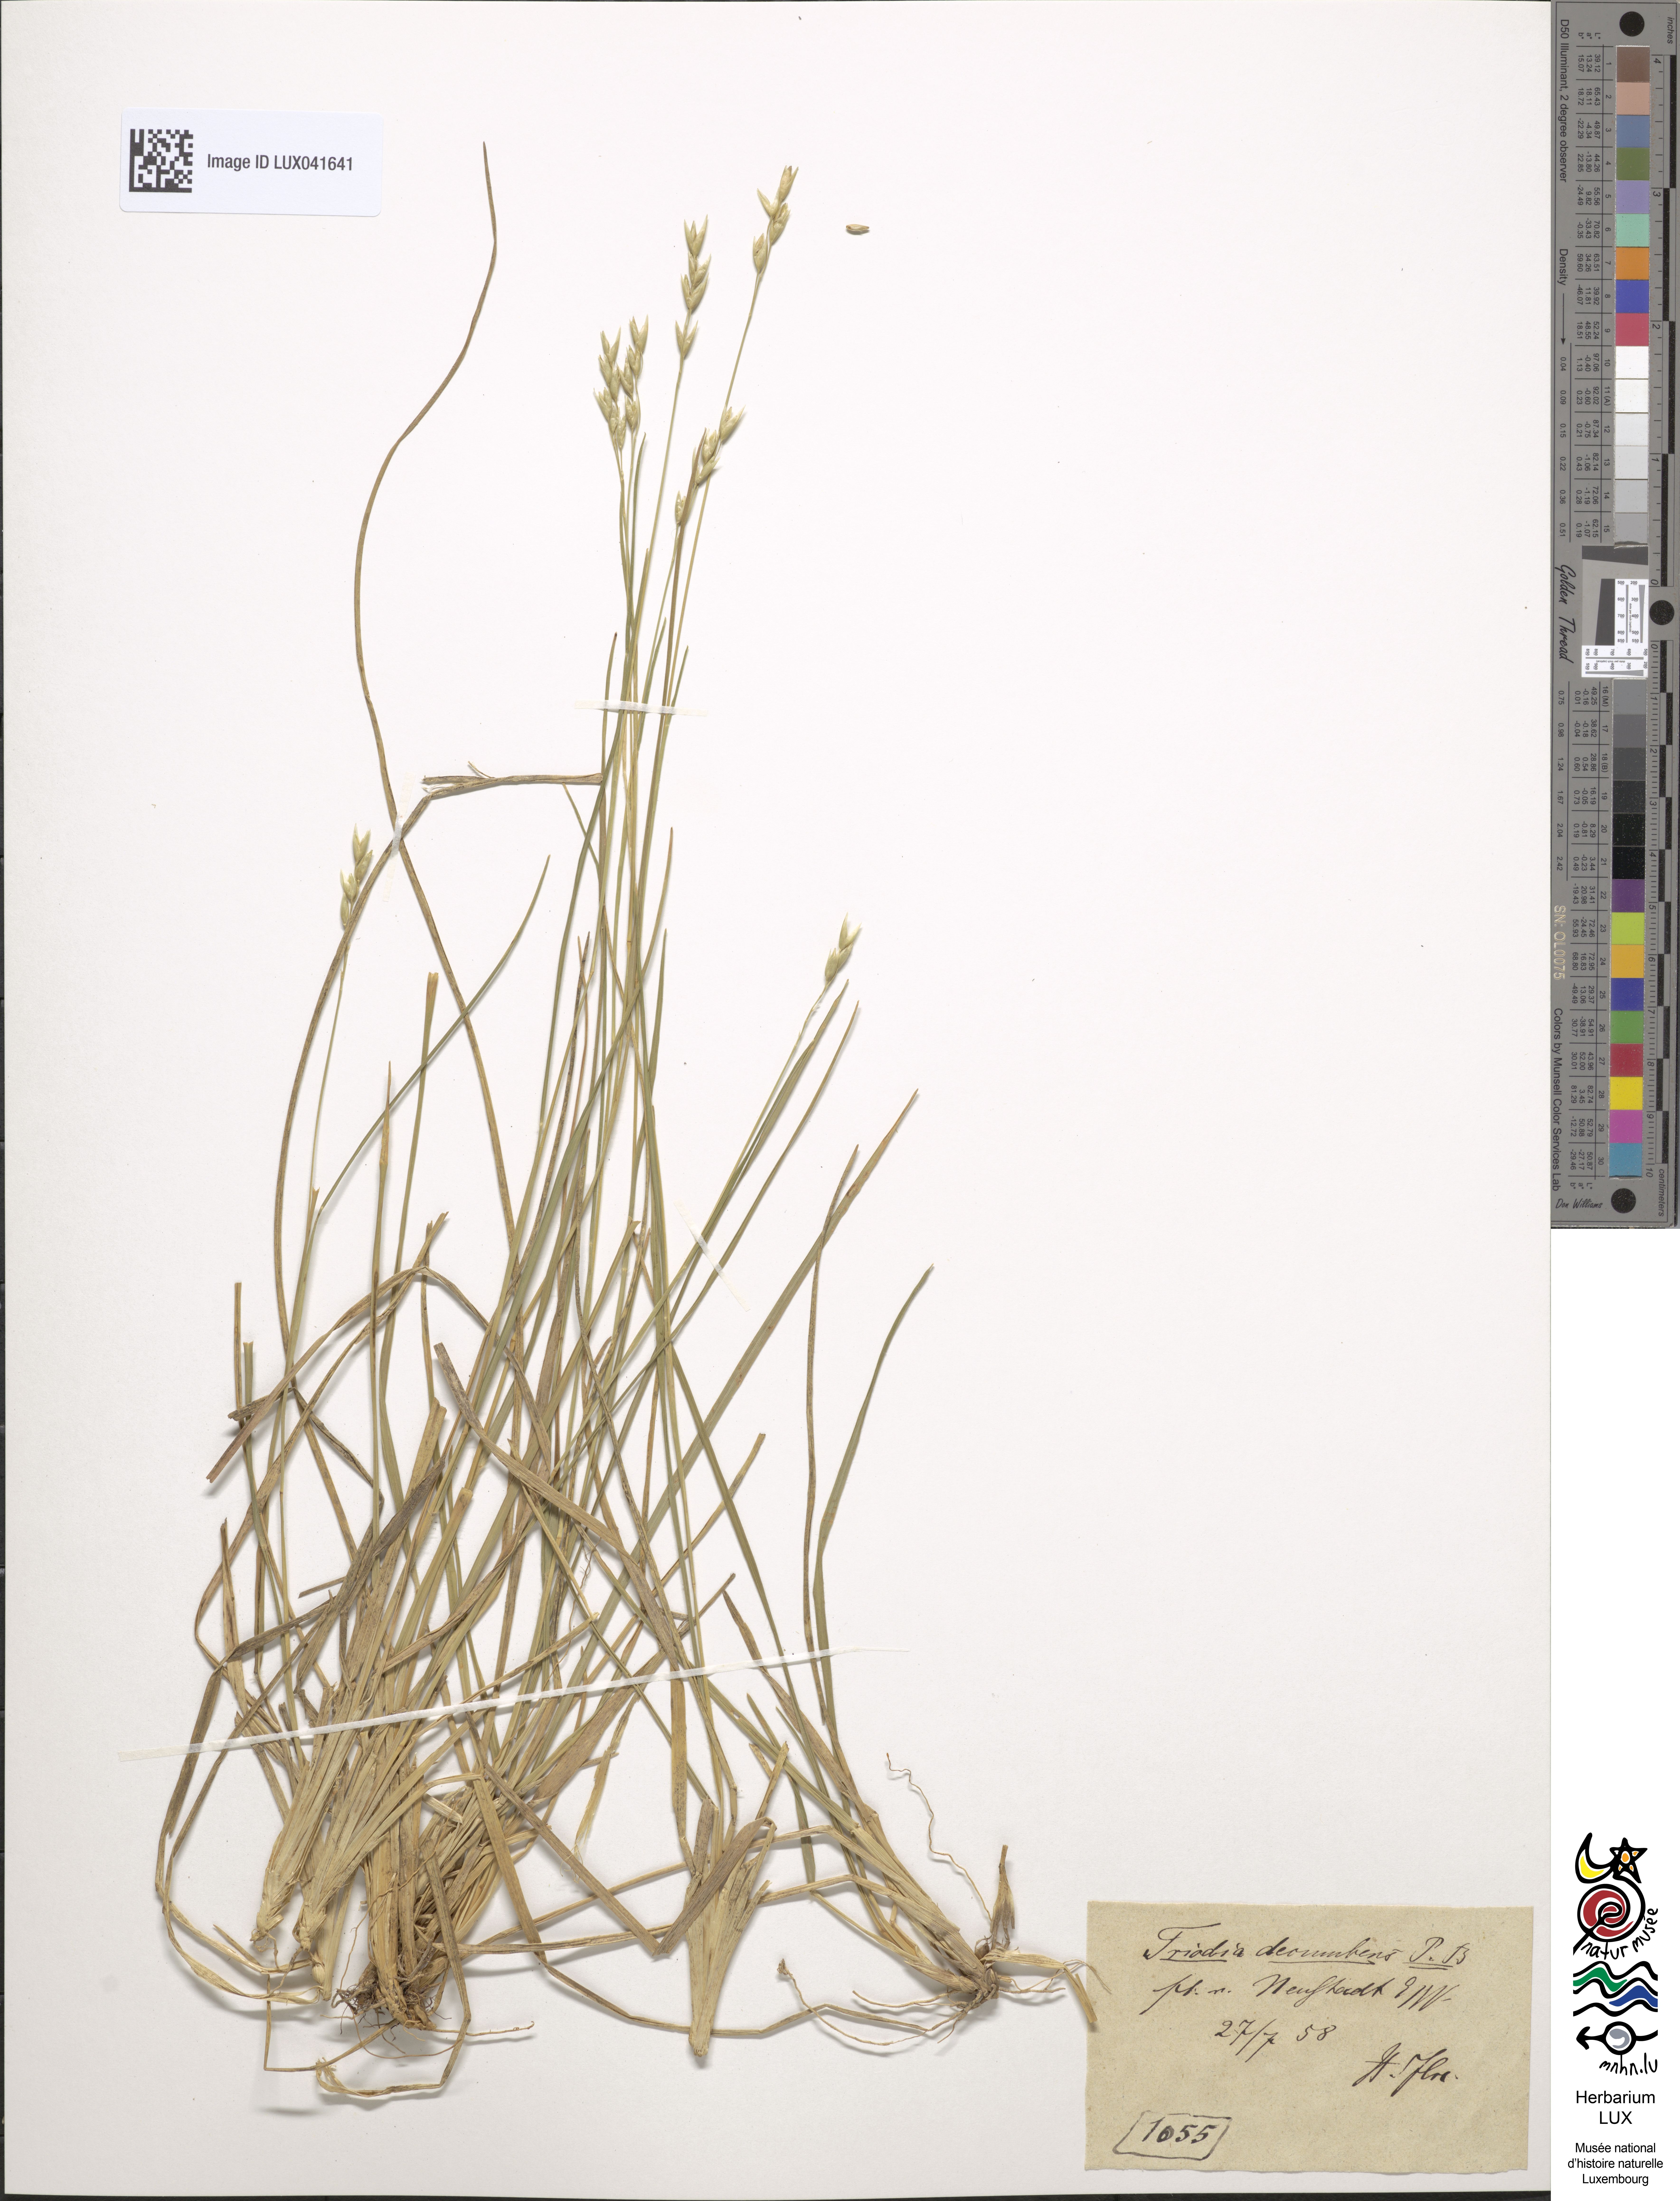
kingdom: Plantae
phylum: Tracheophyta
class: Liliopsida
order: Poales
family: Poaceae
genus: Danthonia
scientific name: Danthonia decumbens
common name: Common heathgrass
